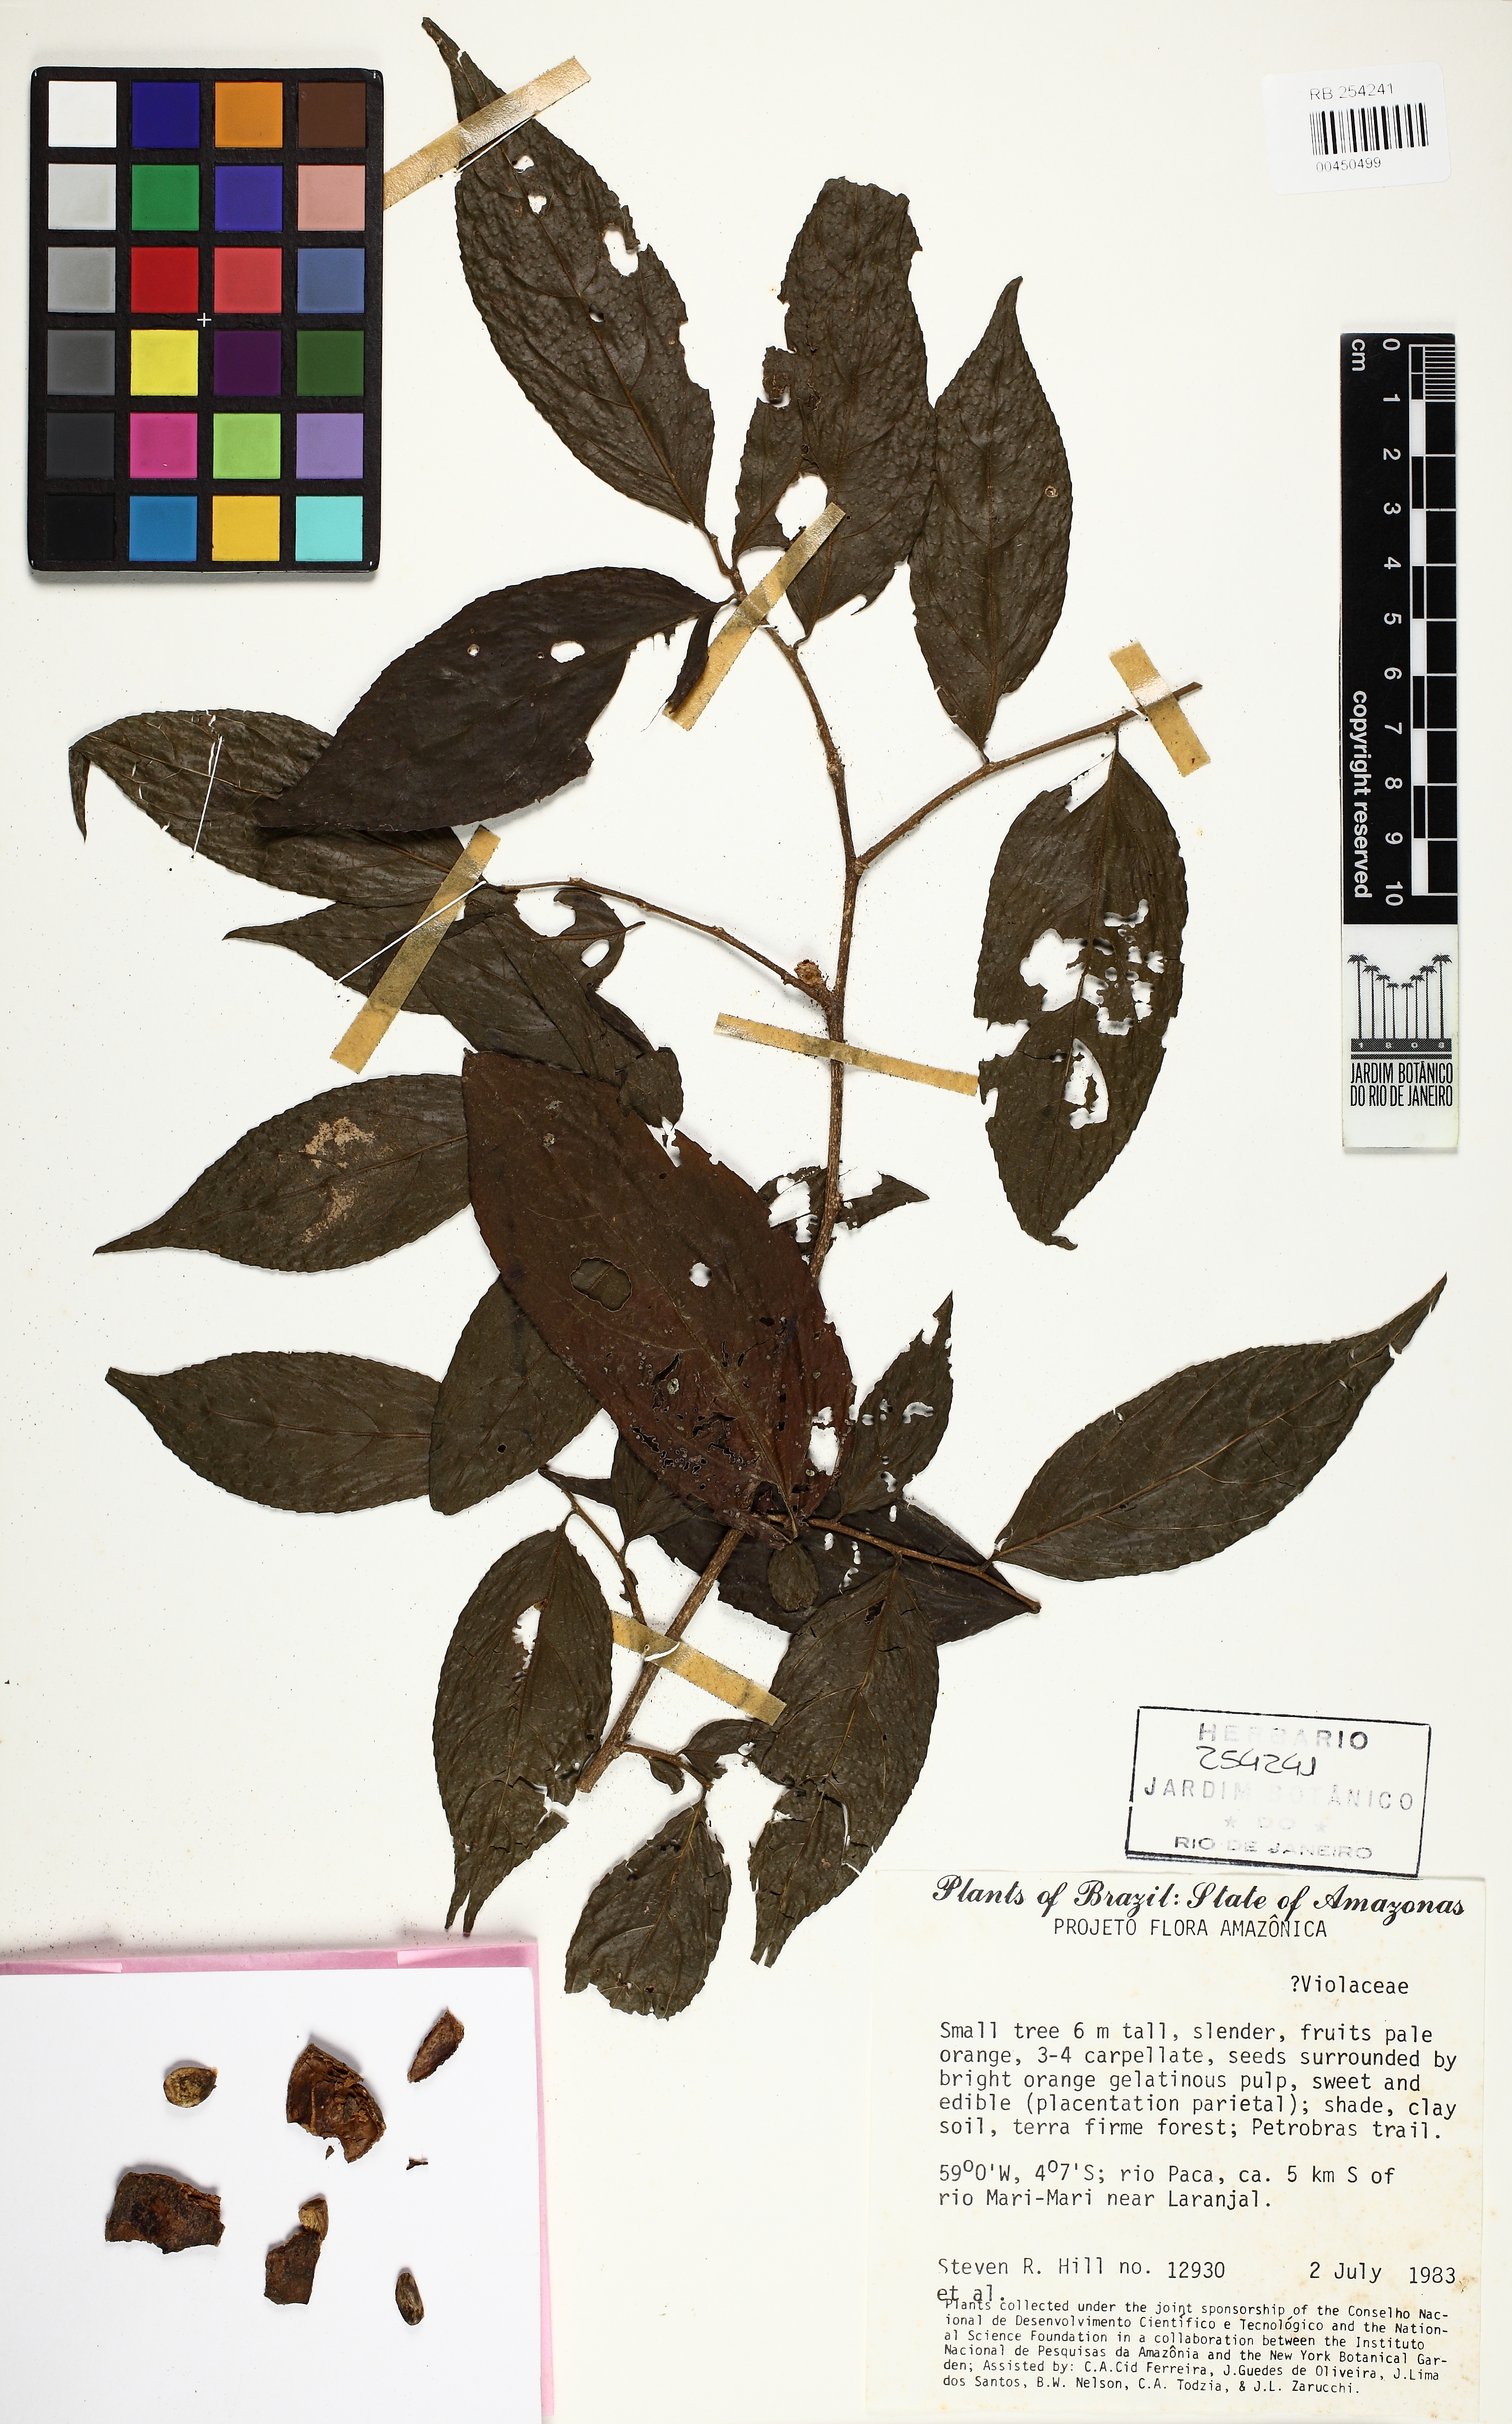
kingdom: Plantae
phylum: Tracheophyta
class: Magnoliopsida
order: Malpighiales
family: Violaceae
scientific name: Violaceae
